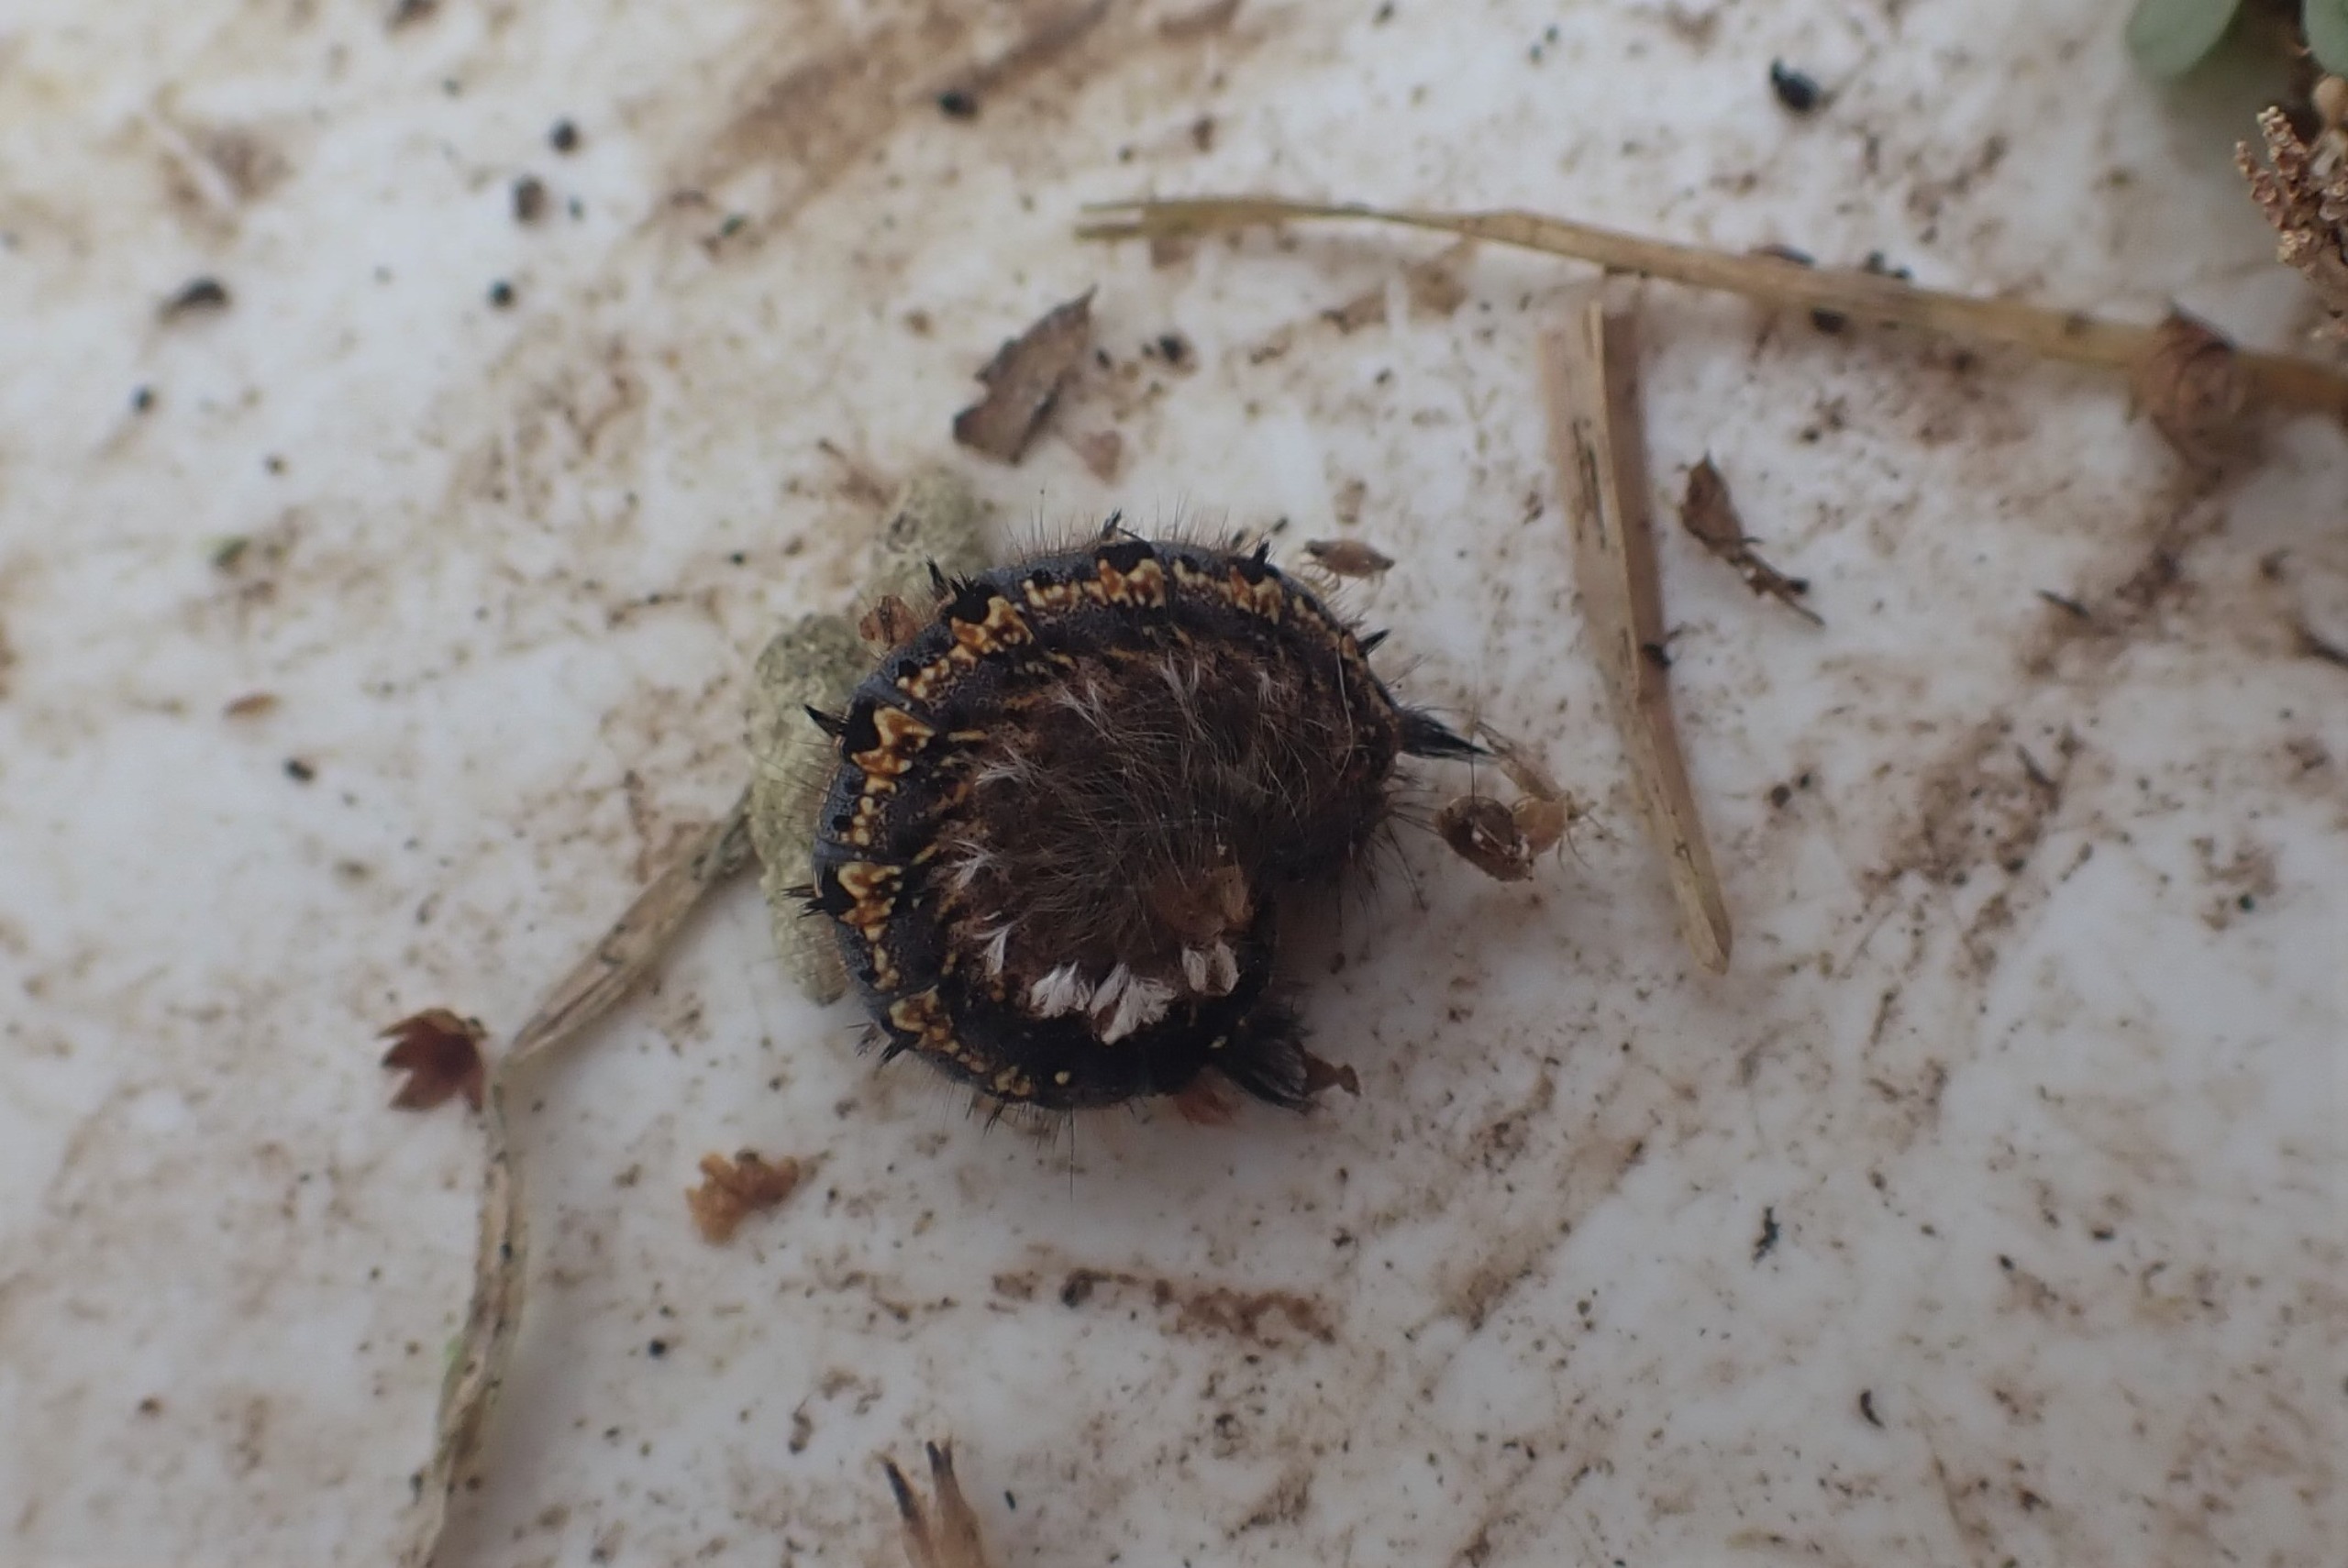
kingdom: Animalia
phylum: Arthropoda
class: Insecta
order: Lepidoptera
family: Lasiocampidae
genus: Euthrix
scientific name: Euthrix potatoria
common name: Græsspinder
